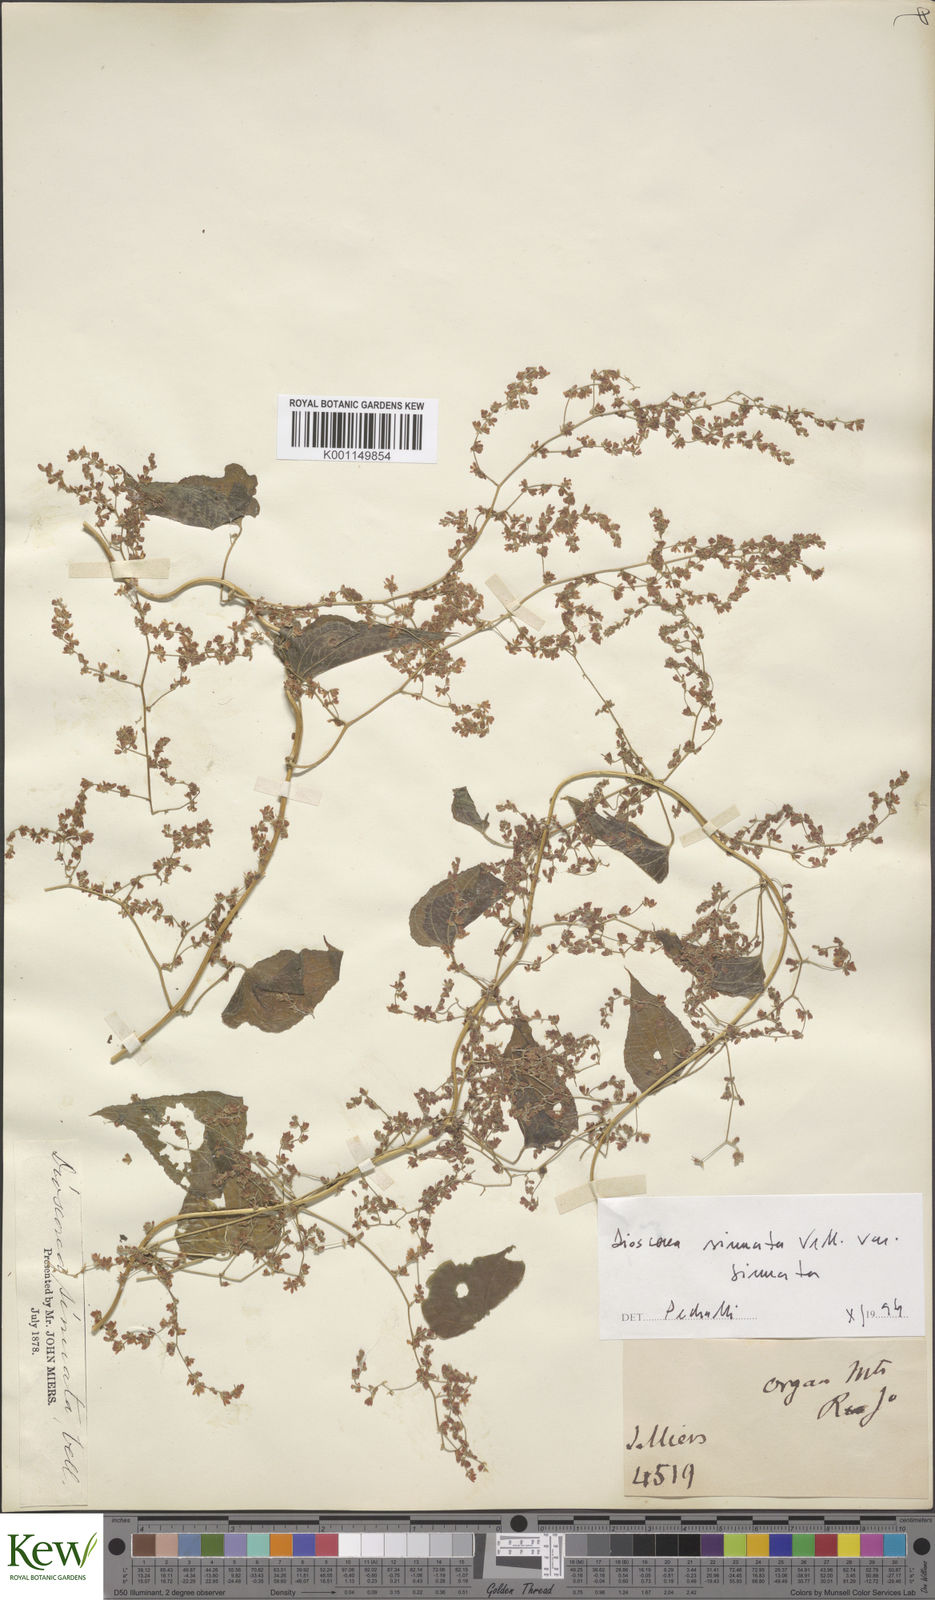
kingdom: Plantae
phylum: Tracheophyta
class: Liliopsida
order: Dioscoreales
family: Dioscoreaceae
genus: Dioscorea
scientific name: Dioscorea sinuata
